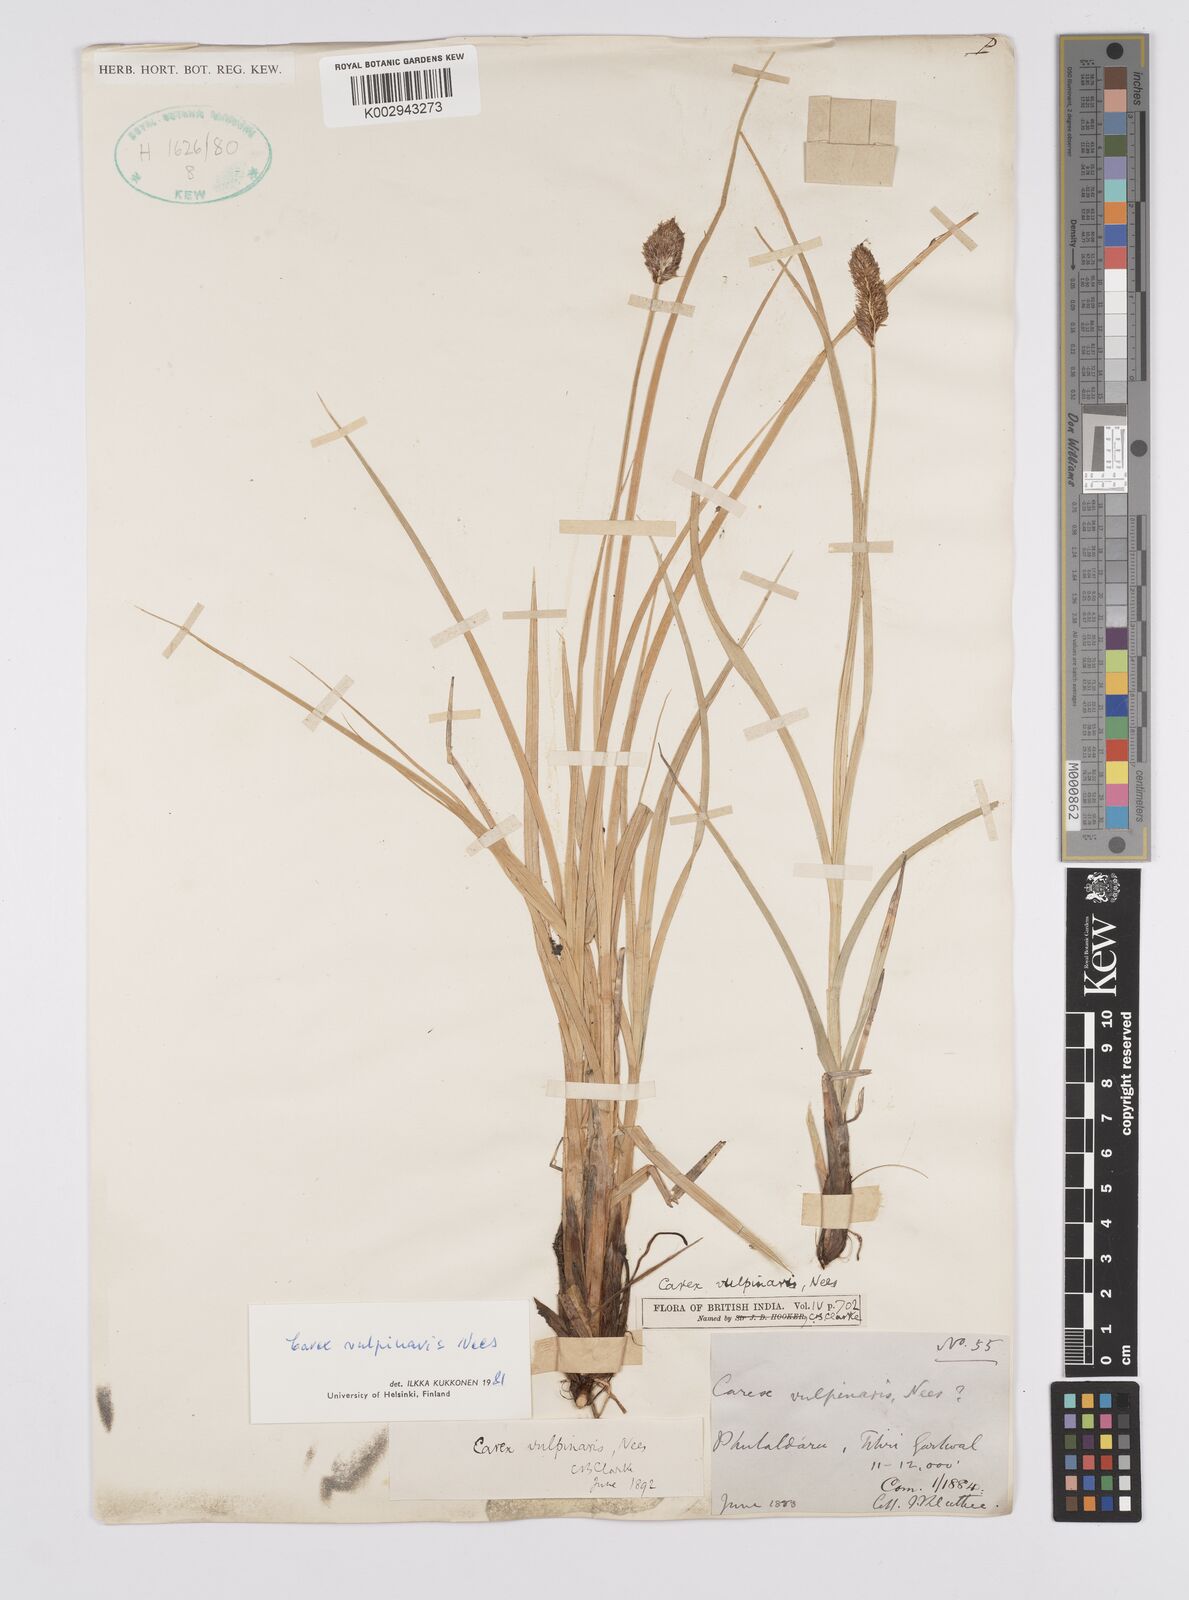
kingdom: Plantae
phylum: Tracheophyta
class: Liliopsida
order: Poales
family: Cyperaceae
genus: Carex
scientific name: Carex vulpinaris
